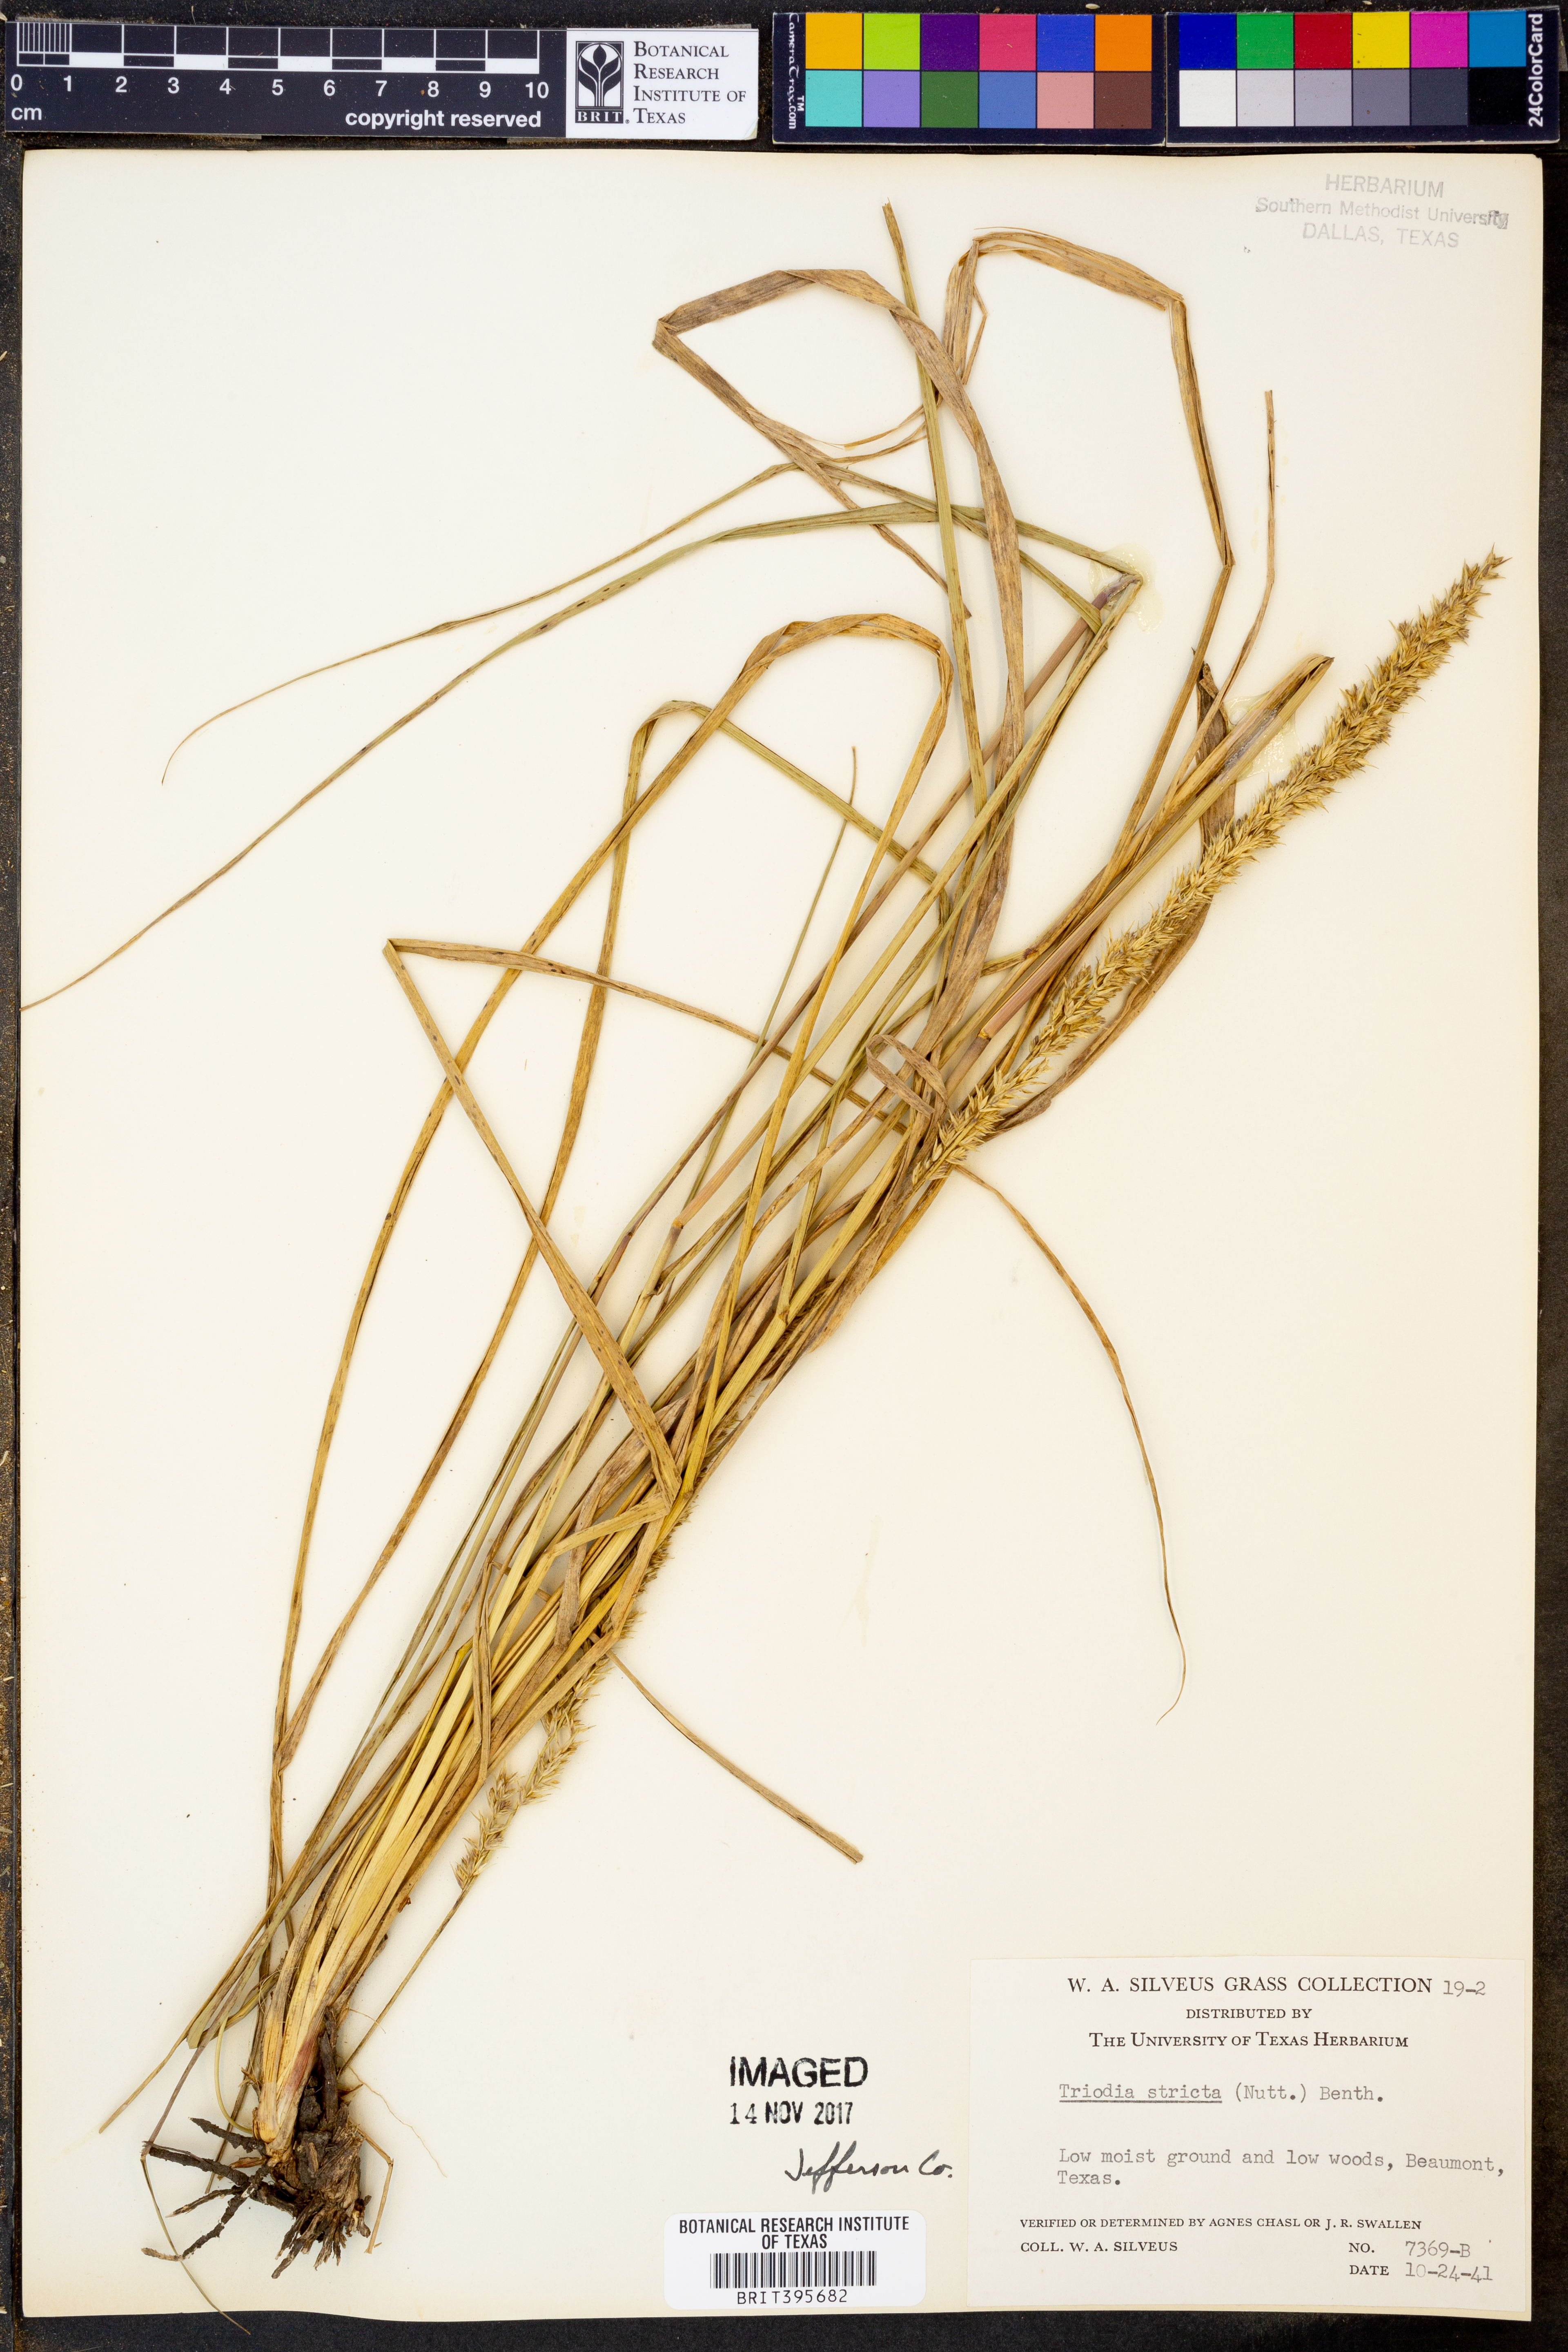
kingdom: Plantae
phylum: Tracheophyta
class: Liliopsida
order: Poales
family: Poaceae
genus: Tridens
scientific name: Tridens strictus
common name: Long-spike tridens
